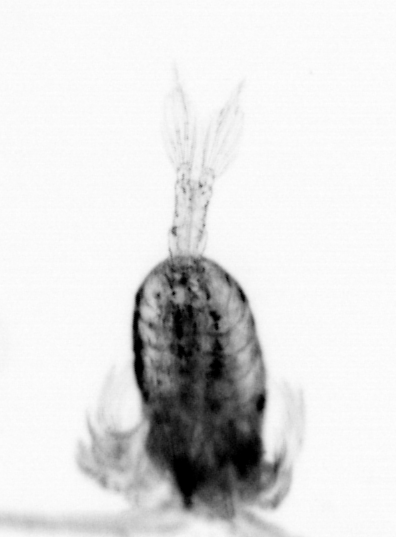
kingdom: Animalia
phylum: Arthropoda
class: Copepoda
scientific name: Copepoda
